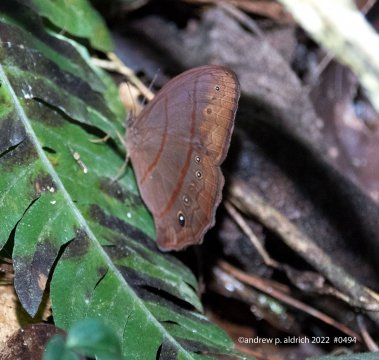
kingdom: Animalia
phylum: Arthropoda
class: Insecta
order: Lepidoptera
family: Nymphalidae
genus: Hermeuptychia
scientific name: Hermeuptychia
